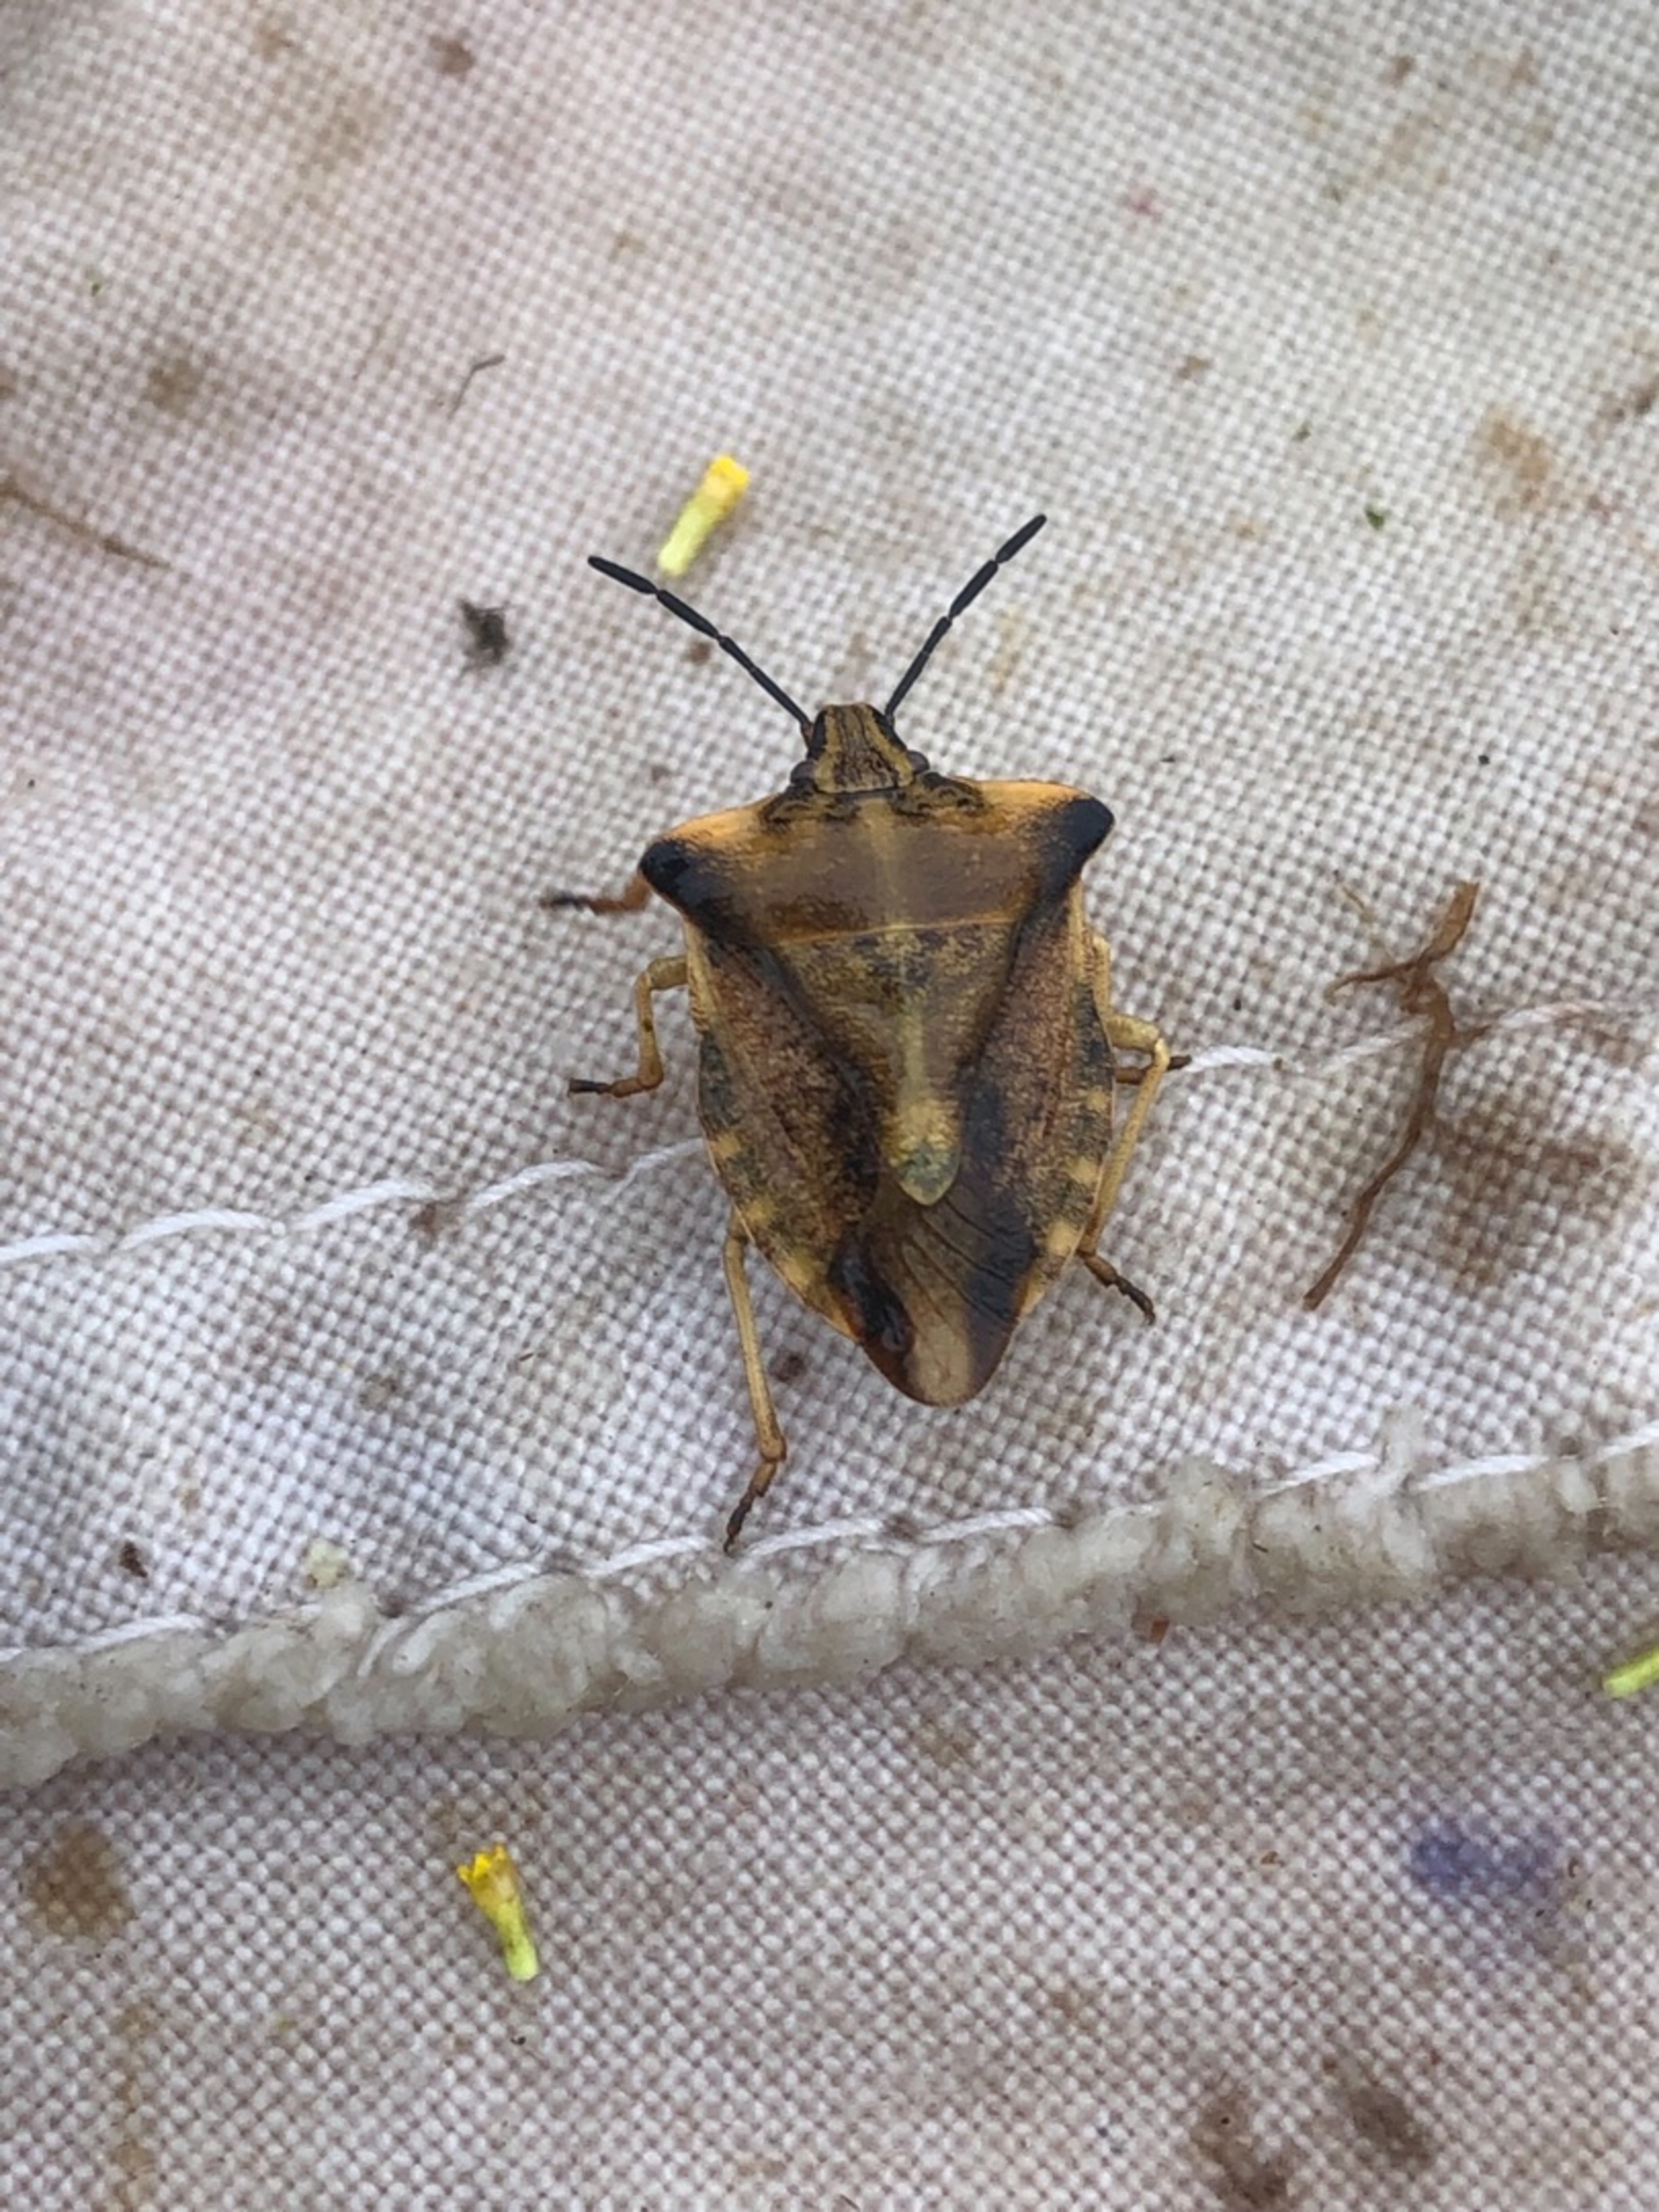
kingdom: Animalia
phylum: Arthropoda
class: Insecta
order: Hemiptera
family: Pentatomidae
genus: Carpocoris
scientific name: Carpocoris fuscispinus
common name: Glat bredtæge
